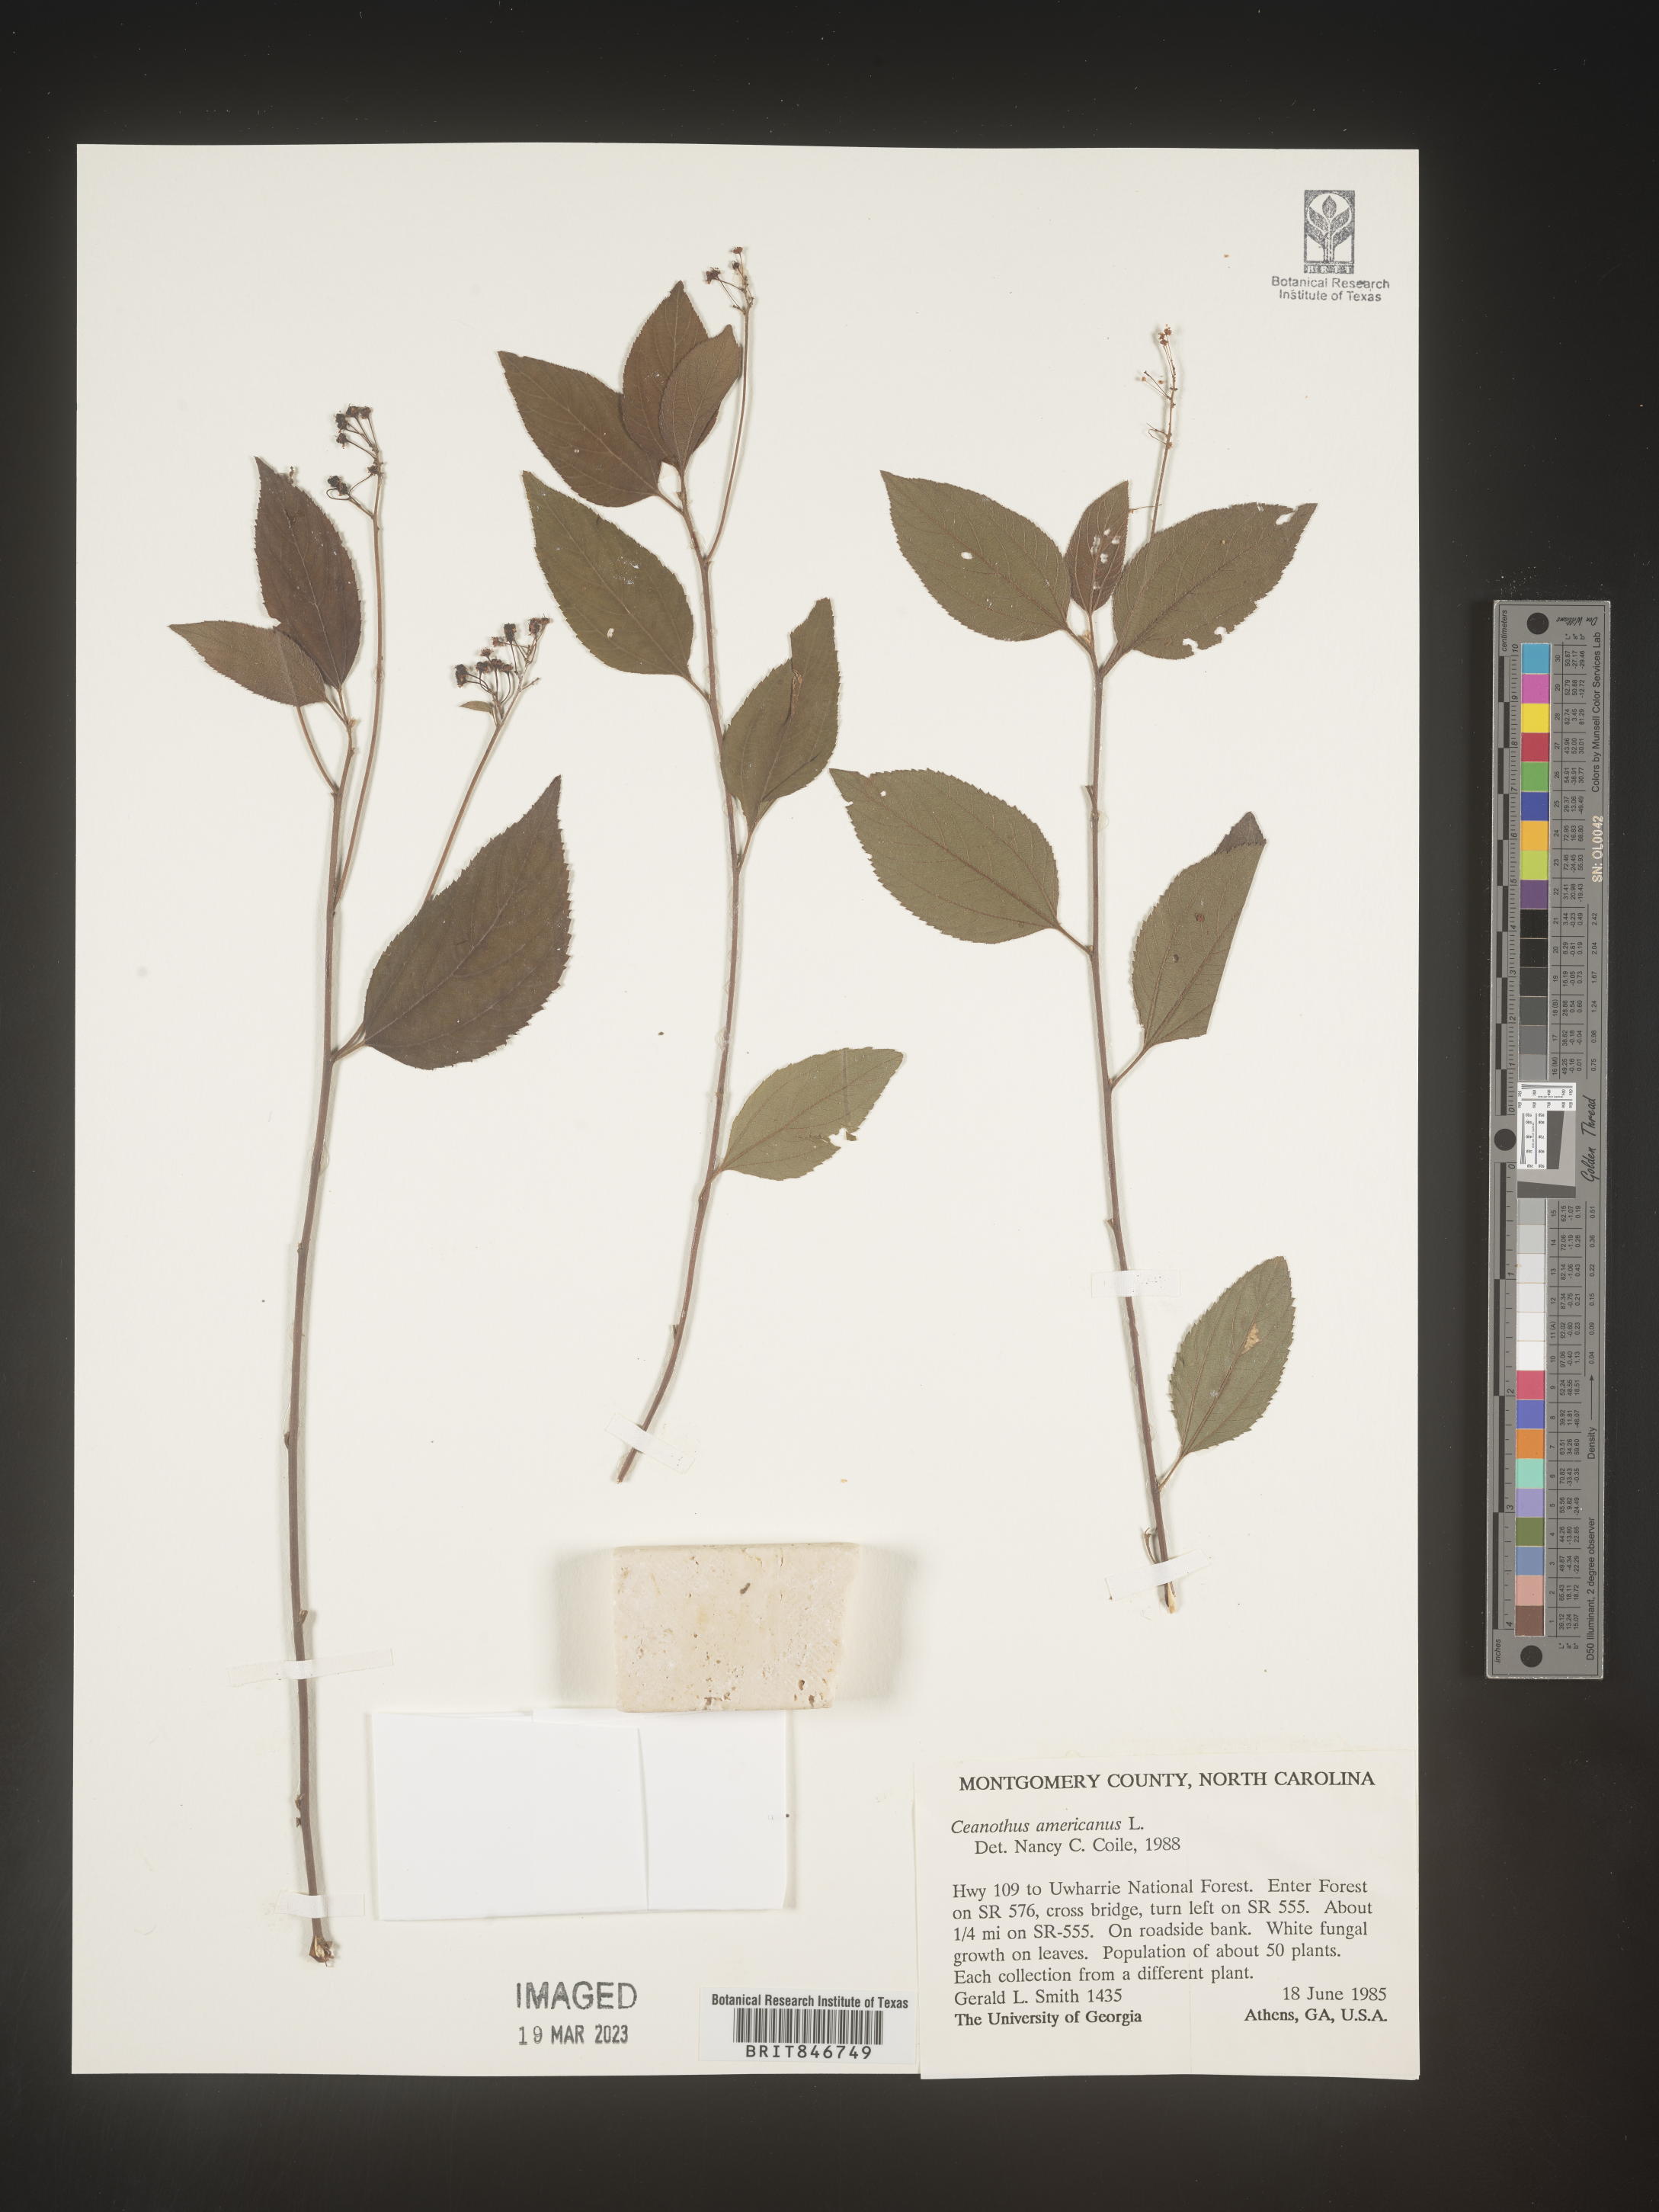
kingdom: Plantae
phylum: Tracheophyta
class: Magnoliopsida
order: Rosales
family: Rhamnaceae
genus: Ceanothus
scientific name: Ceanothus americanus
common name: Redroot
